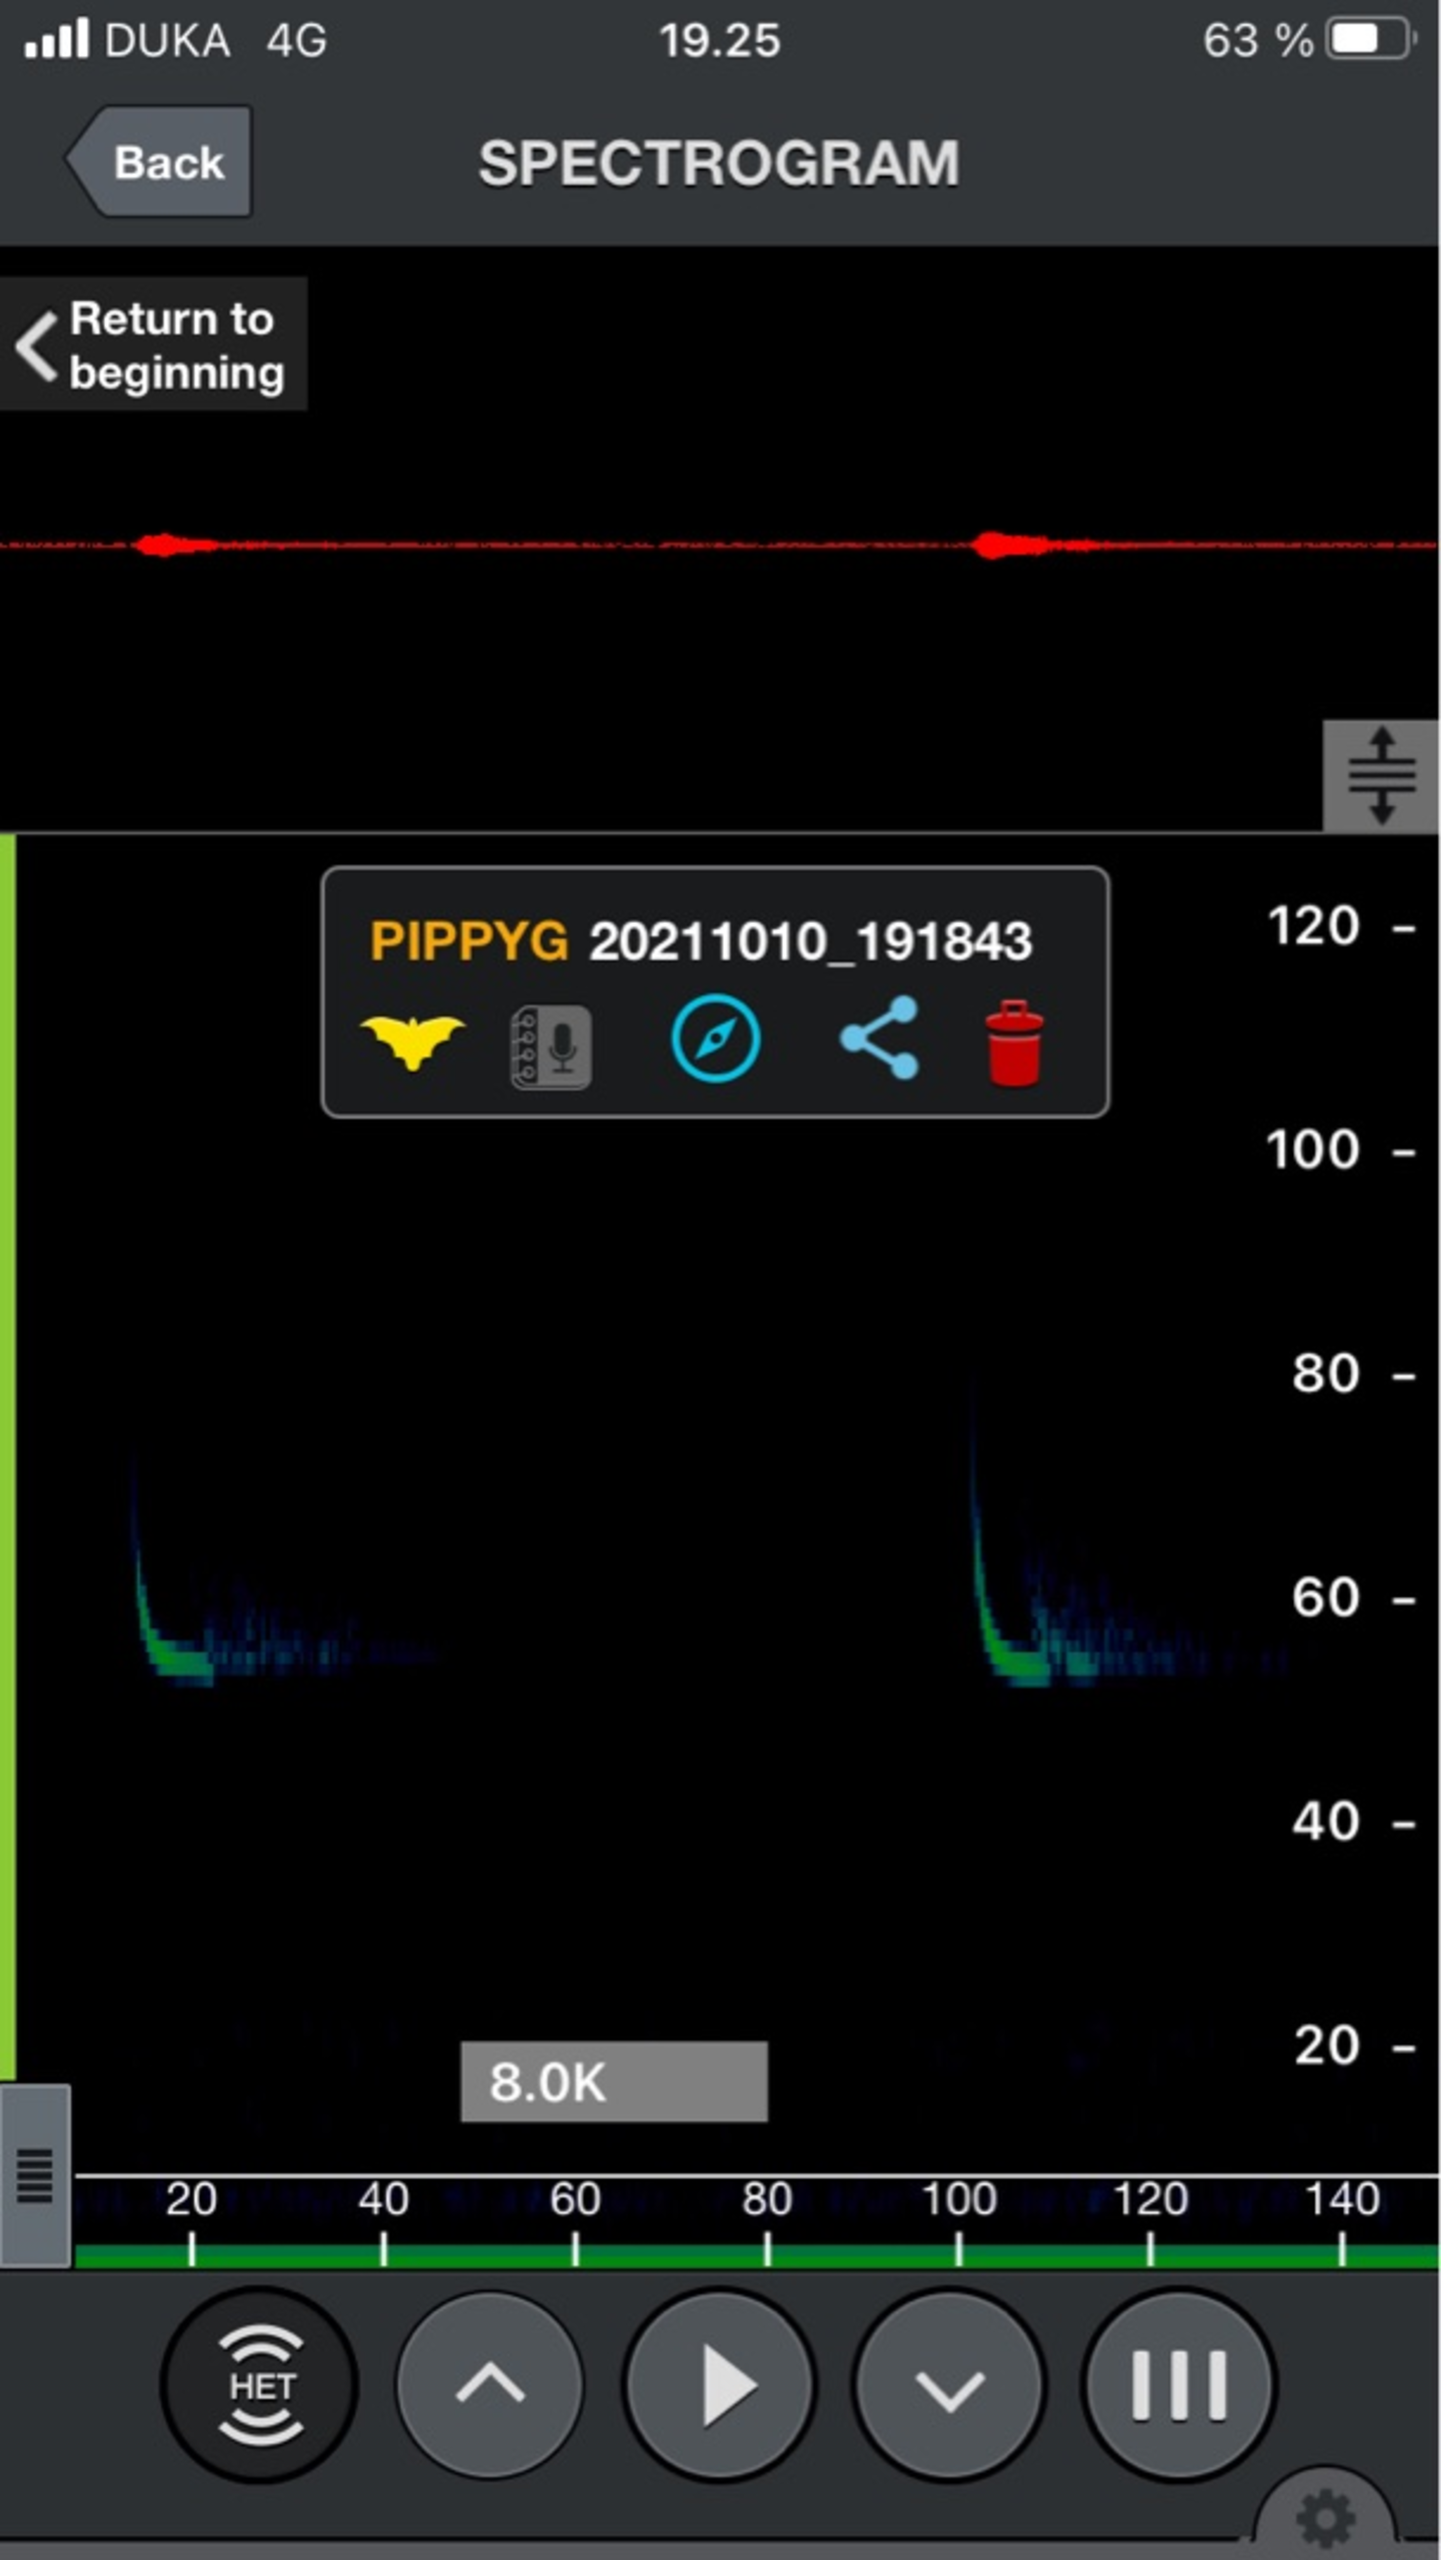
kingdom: Animalia
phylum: Chordata
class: Mammalia
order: Chiroptera
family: Vespertilionidae
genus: Pipistrellus
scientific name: Pipistrellus pygmaeus
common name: Dværgflagermus
